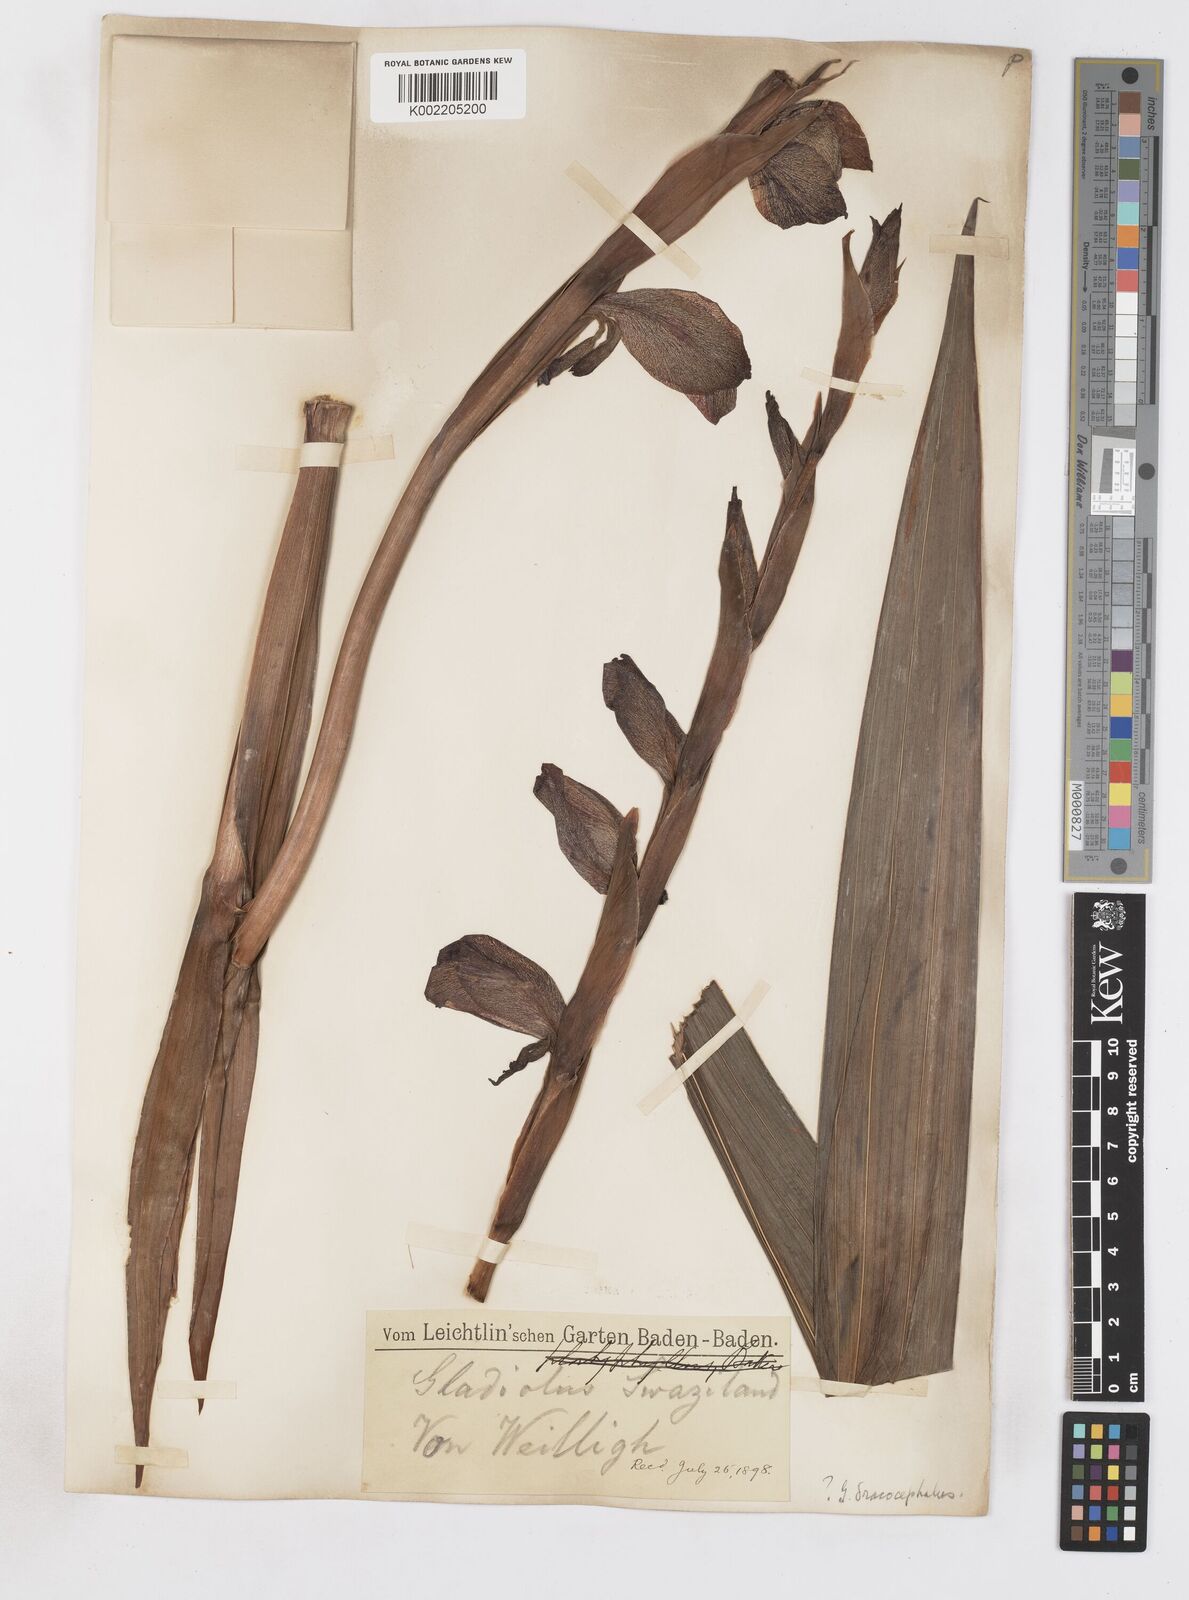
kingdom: Plantae
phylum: Tracheophyta
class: Liliopsida
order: Asparagales
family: Iridaceae
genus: Gladiolus
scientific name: Gladiolus dalenii
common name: Cornflag
